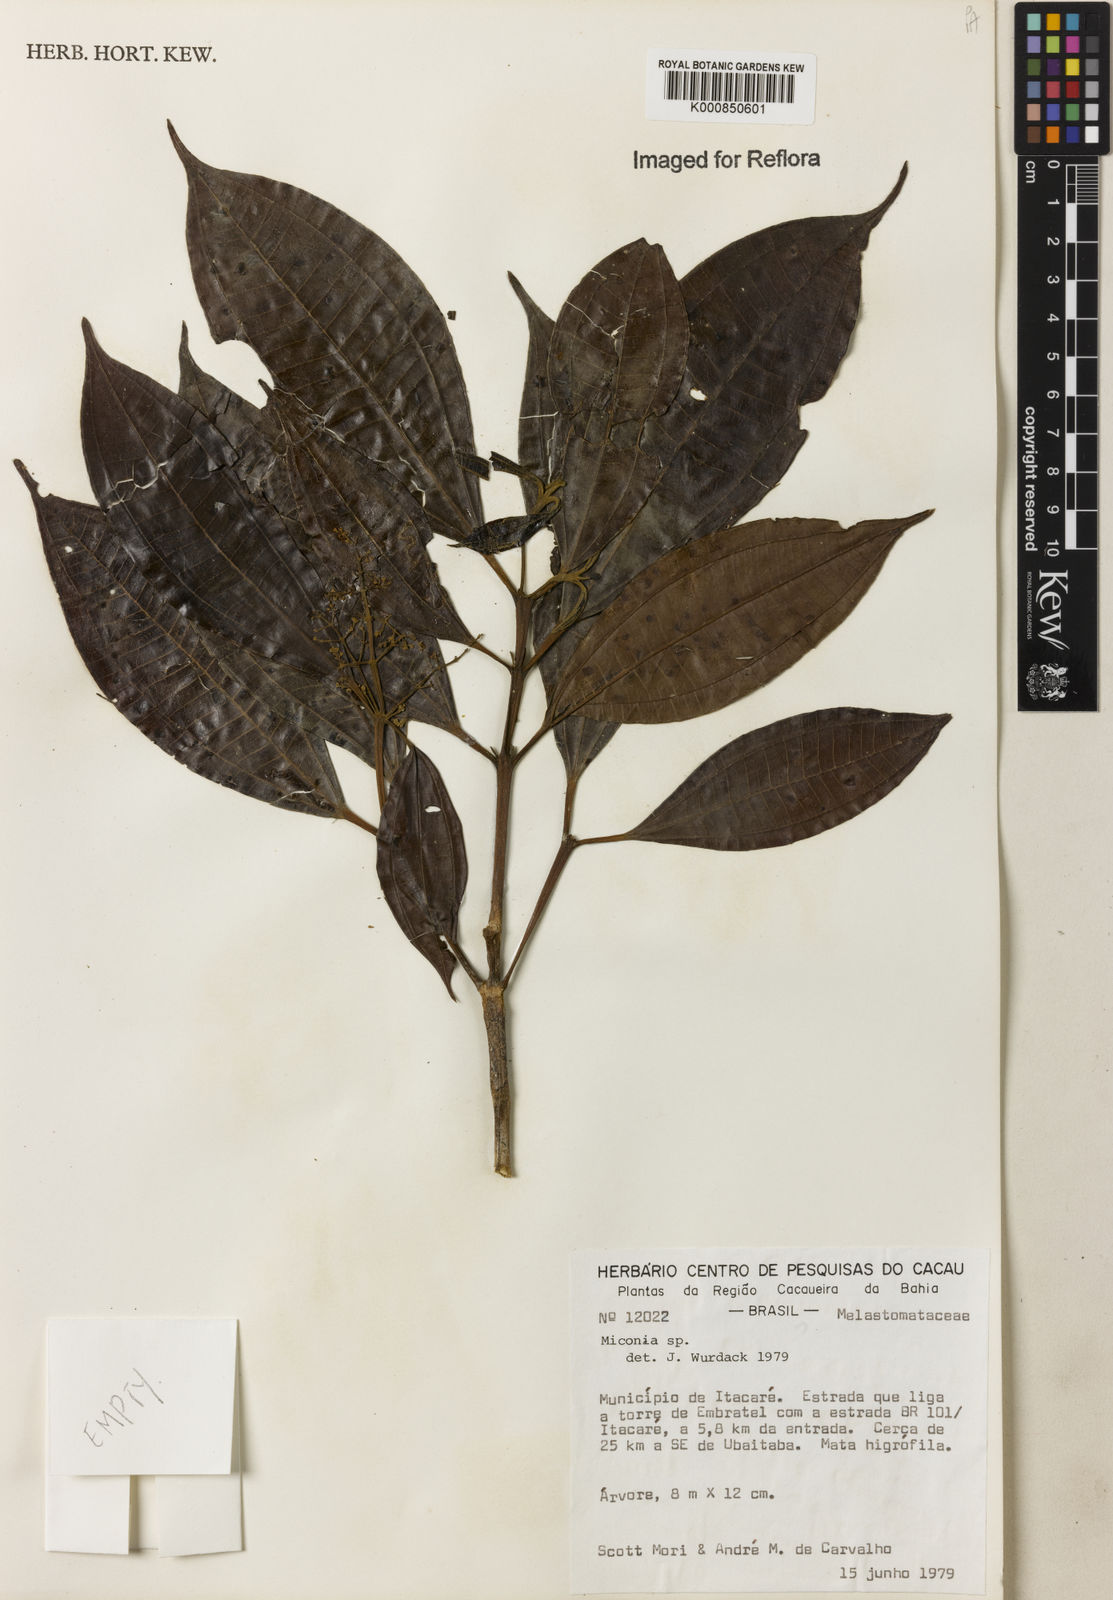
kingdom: Plantae
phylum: Tracheophyta
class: Magnoliopsida
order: Myrtales
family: Melastomataceae
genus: Miconia
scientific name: Miconia
